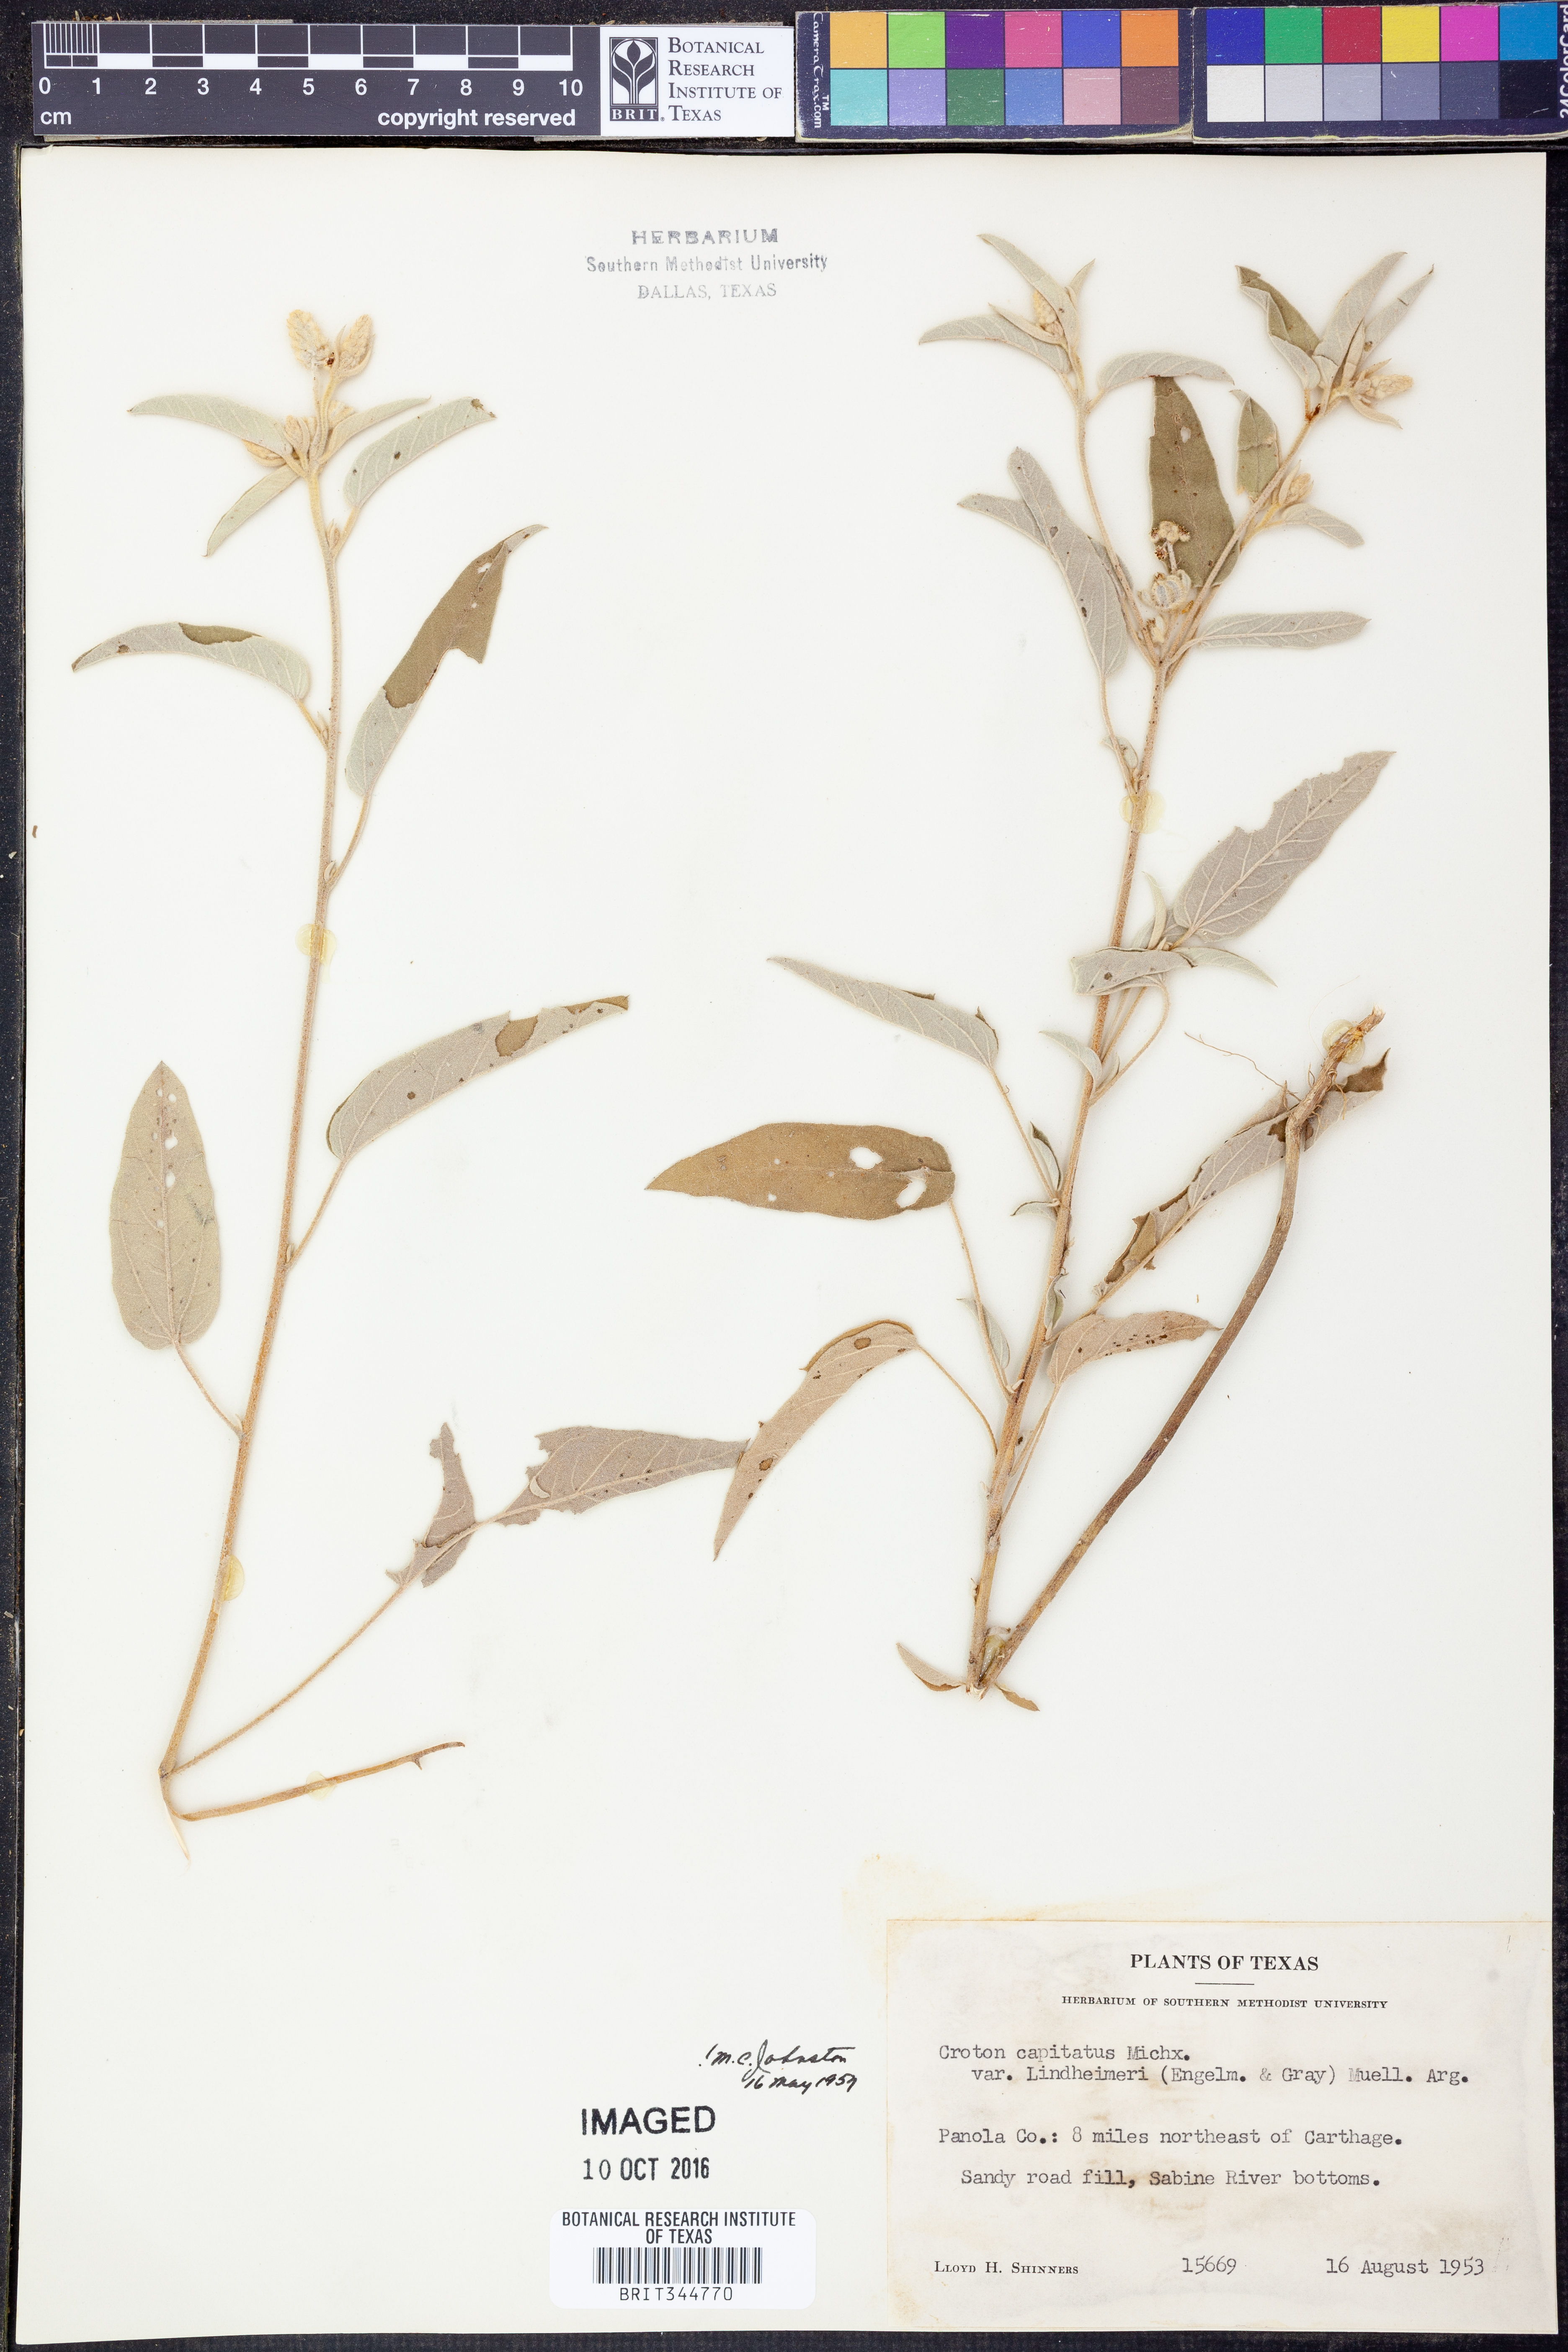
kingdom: Plantae
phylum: Tracheophyta
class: Magnoliopsida
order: Malpighiales
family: Euphorbiaceae
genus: Croton
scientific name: Croton lindheimeri
